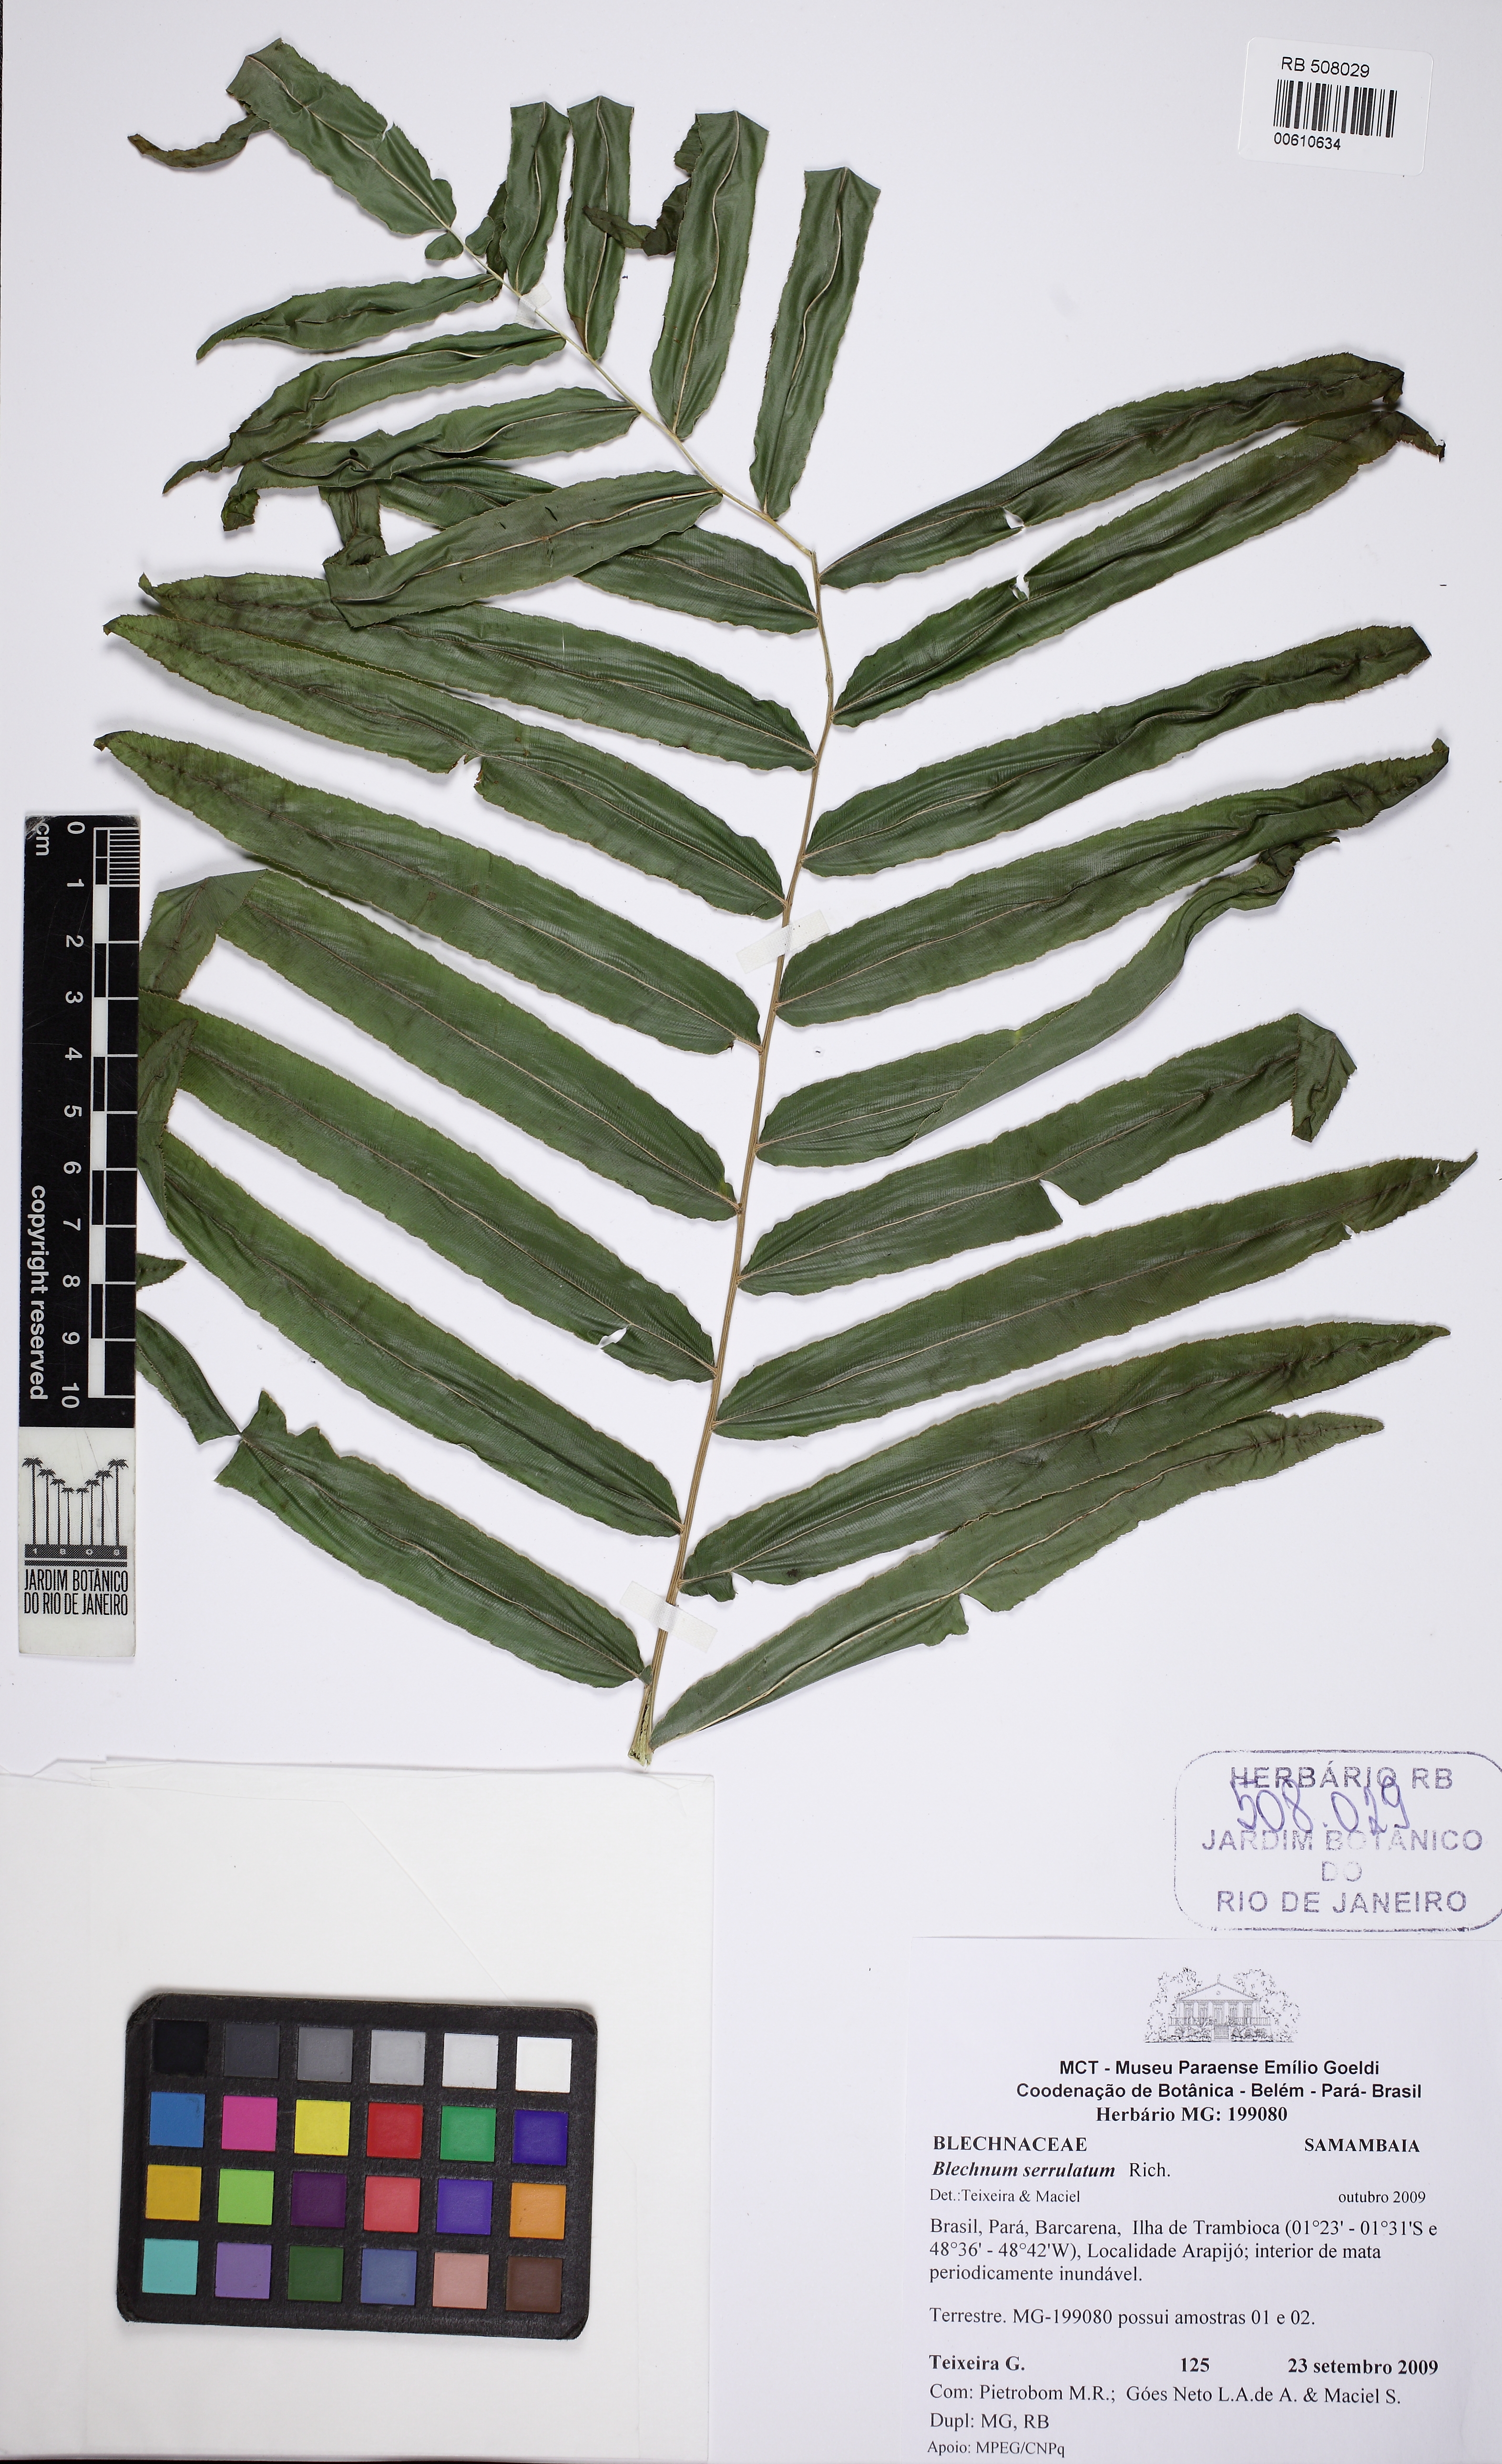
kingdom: Plantae
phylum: Tracheophyta
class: Polypodiopsida
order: Polypodiales
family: Blechnaceae
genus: Telmatoblechnum
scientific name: Telmatoblechnum serrulatum
